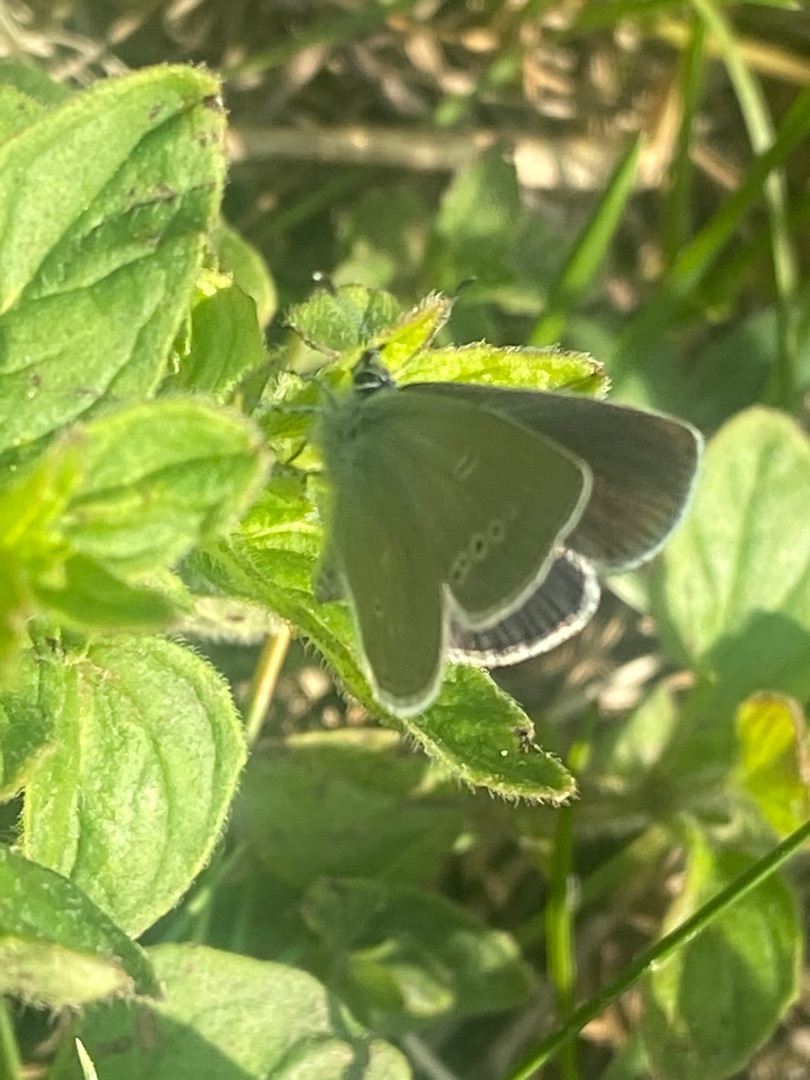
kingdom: Animalia
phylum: Arthropoda
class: Insecta
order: Lepidoptera
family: Lycaenidae
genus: Cupido
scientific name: Cupido minimus
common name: Dværgblåfugl
